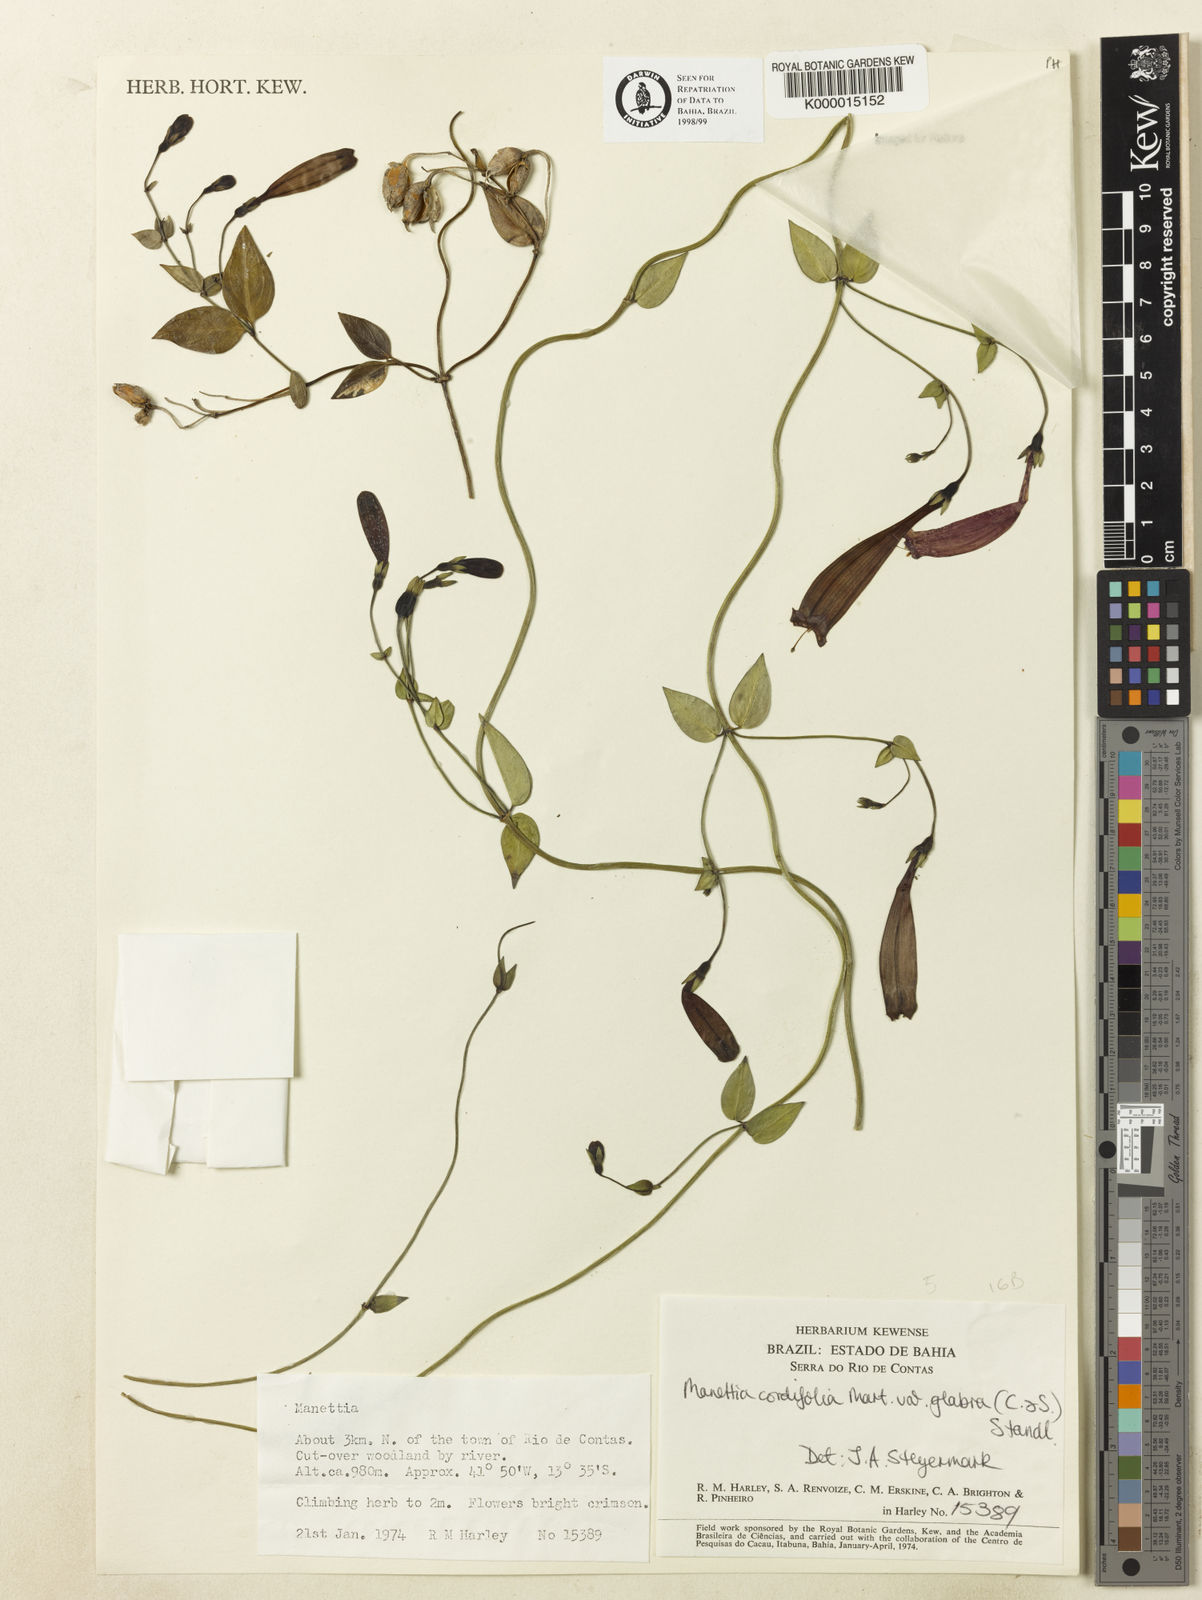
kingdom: Plantae
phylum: Tracheophyta
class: Magnoliopsida
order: Gentianales
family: Rubiaceae
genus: Manettia
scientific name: Manettia cordifolia
